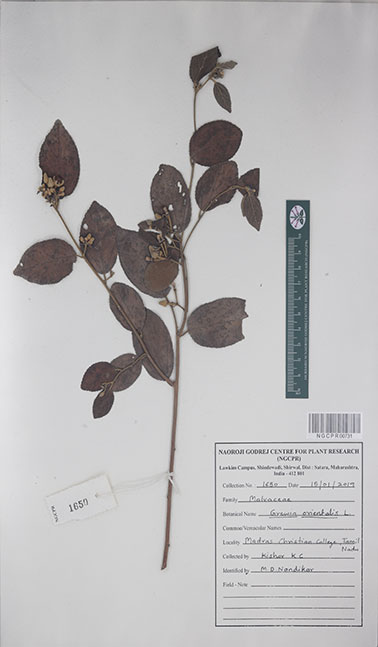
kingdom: Plantae
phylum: Tracheophyta
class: Magnoliopsida
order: Malvales
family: Malvaceae
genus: Grewia
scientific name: Grewia orientalis
